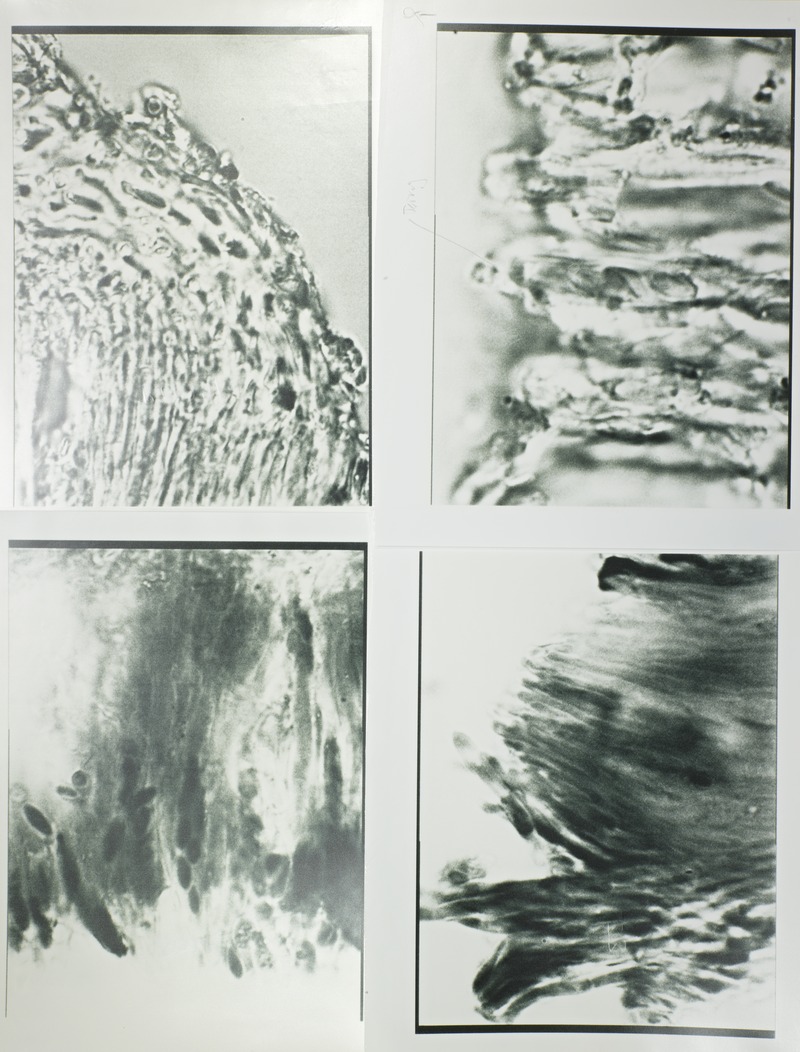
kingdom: Fungi
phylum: Ascomycota
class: Leotiomycetes
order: Helotiales
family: Helotiaceae
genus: Cyathicula
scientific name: Cyathicula calathicola
